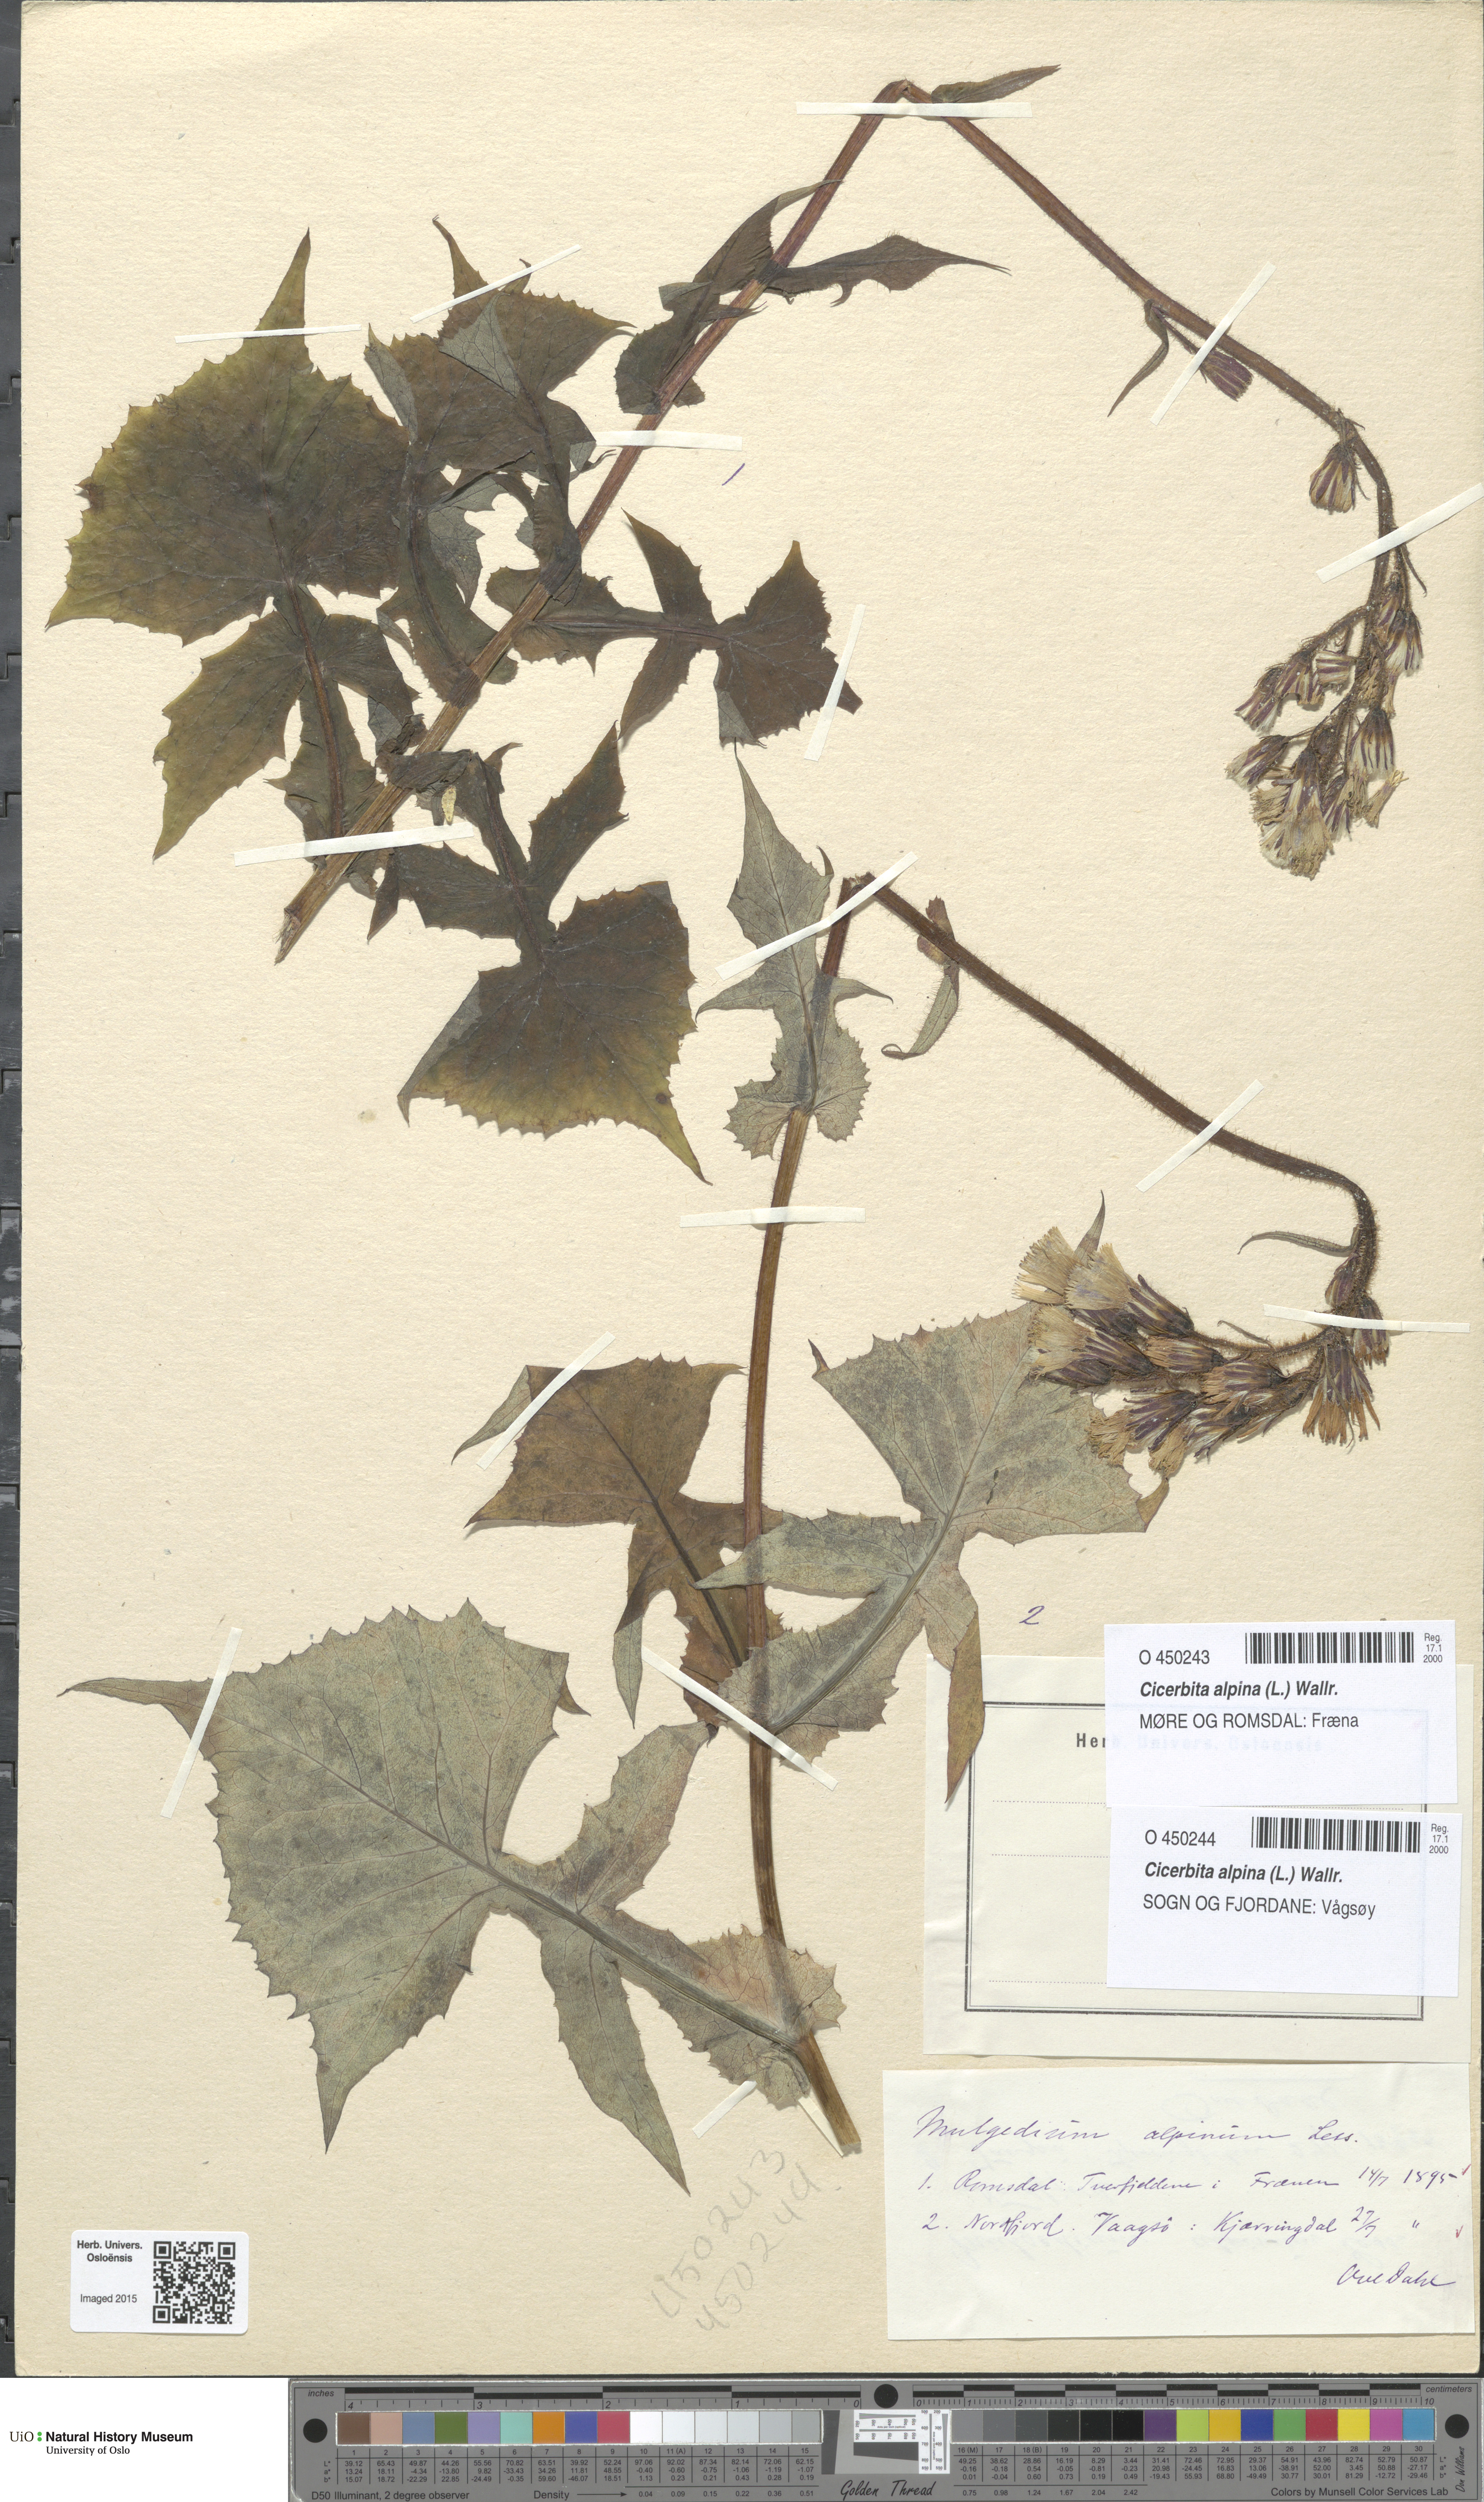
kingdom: Plantae
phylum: Tracheophyta
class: Magnoliopsida
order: Asterales
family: Asteraceae
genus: Cicerbita
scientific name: Cicerbita alpina
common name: Alpine blue-sow-thistle
